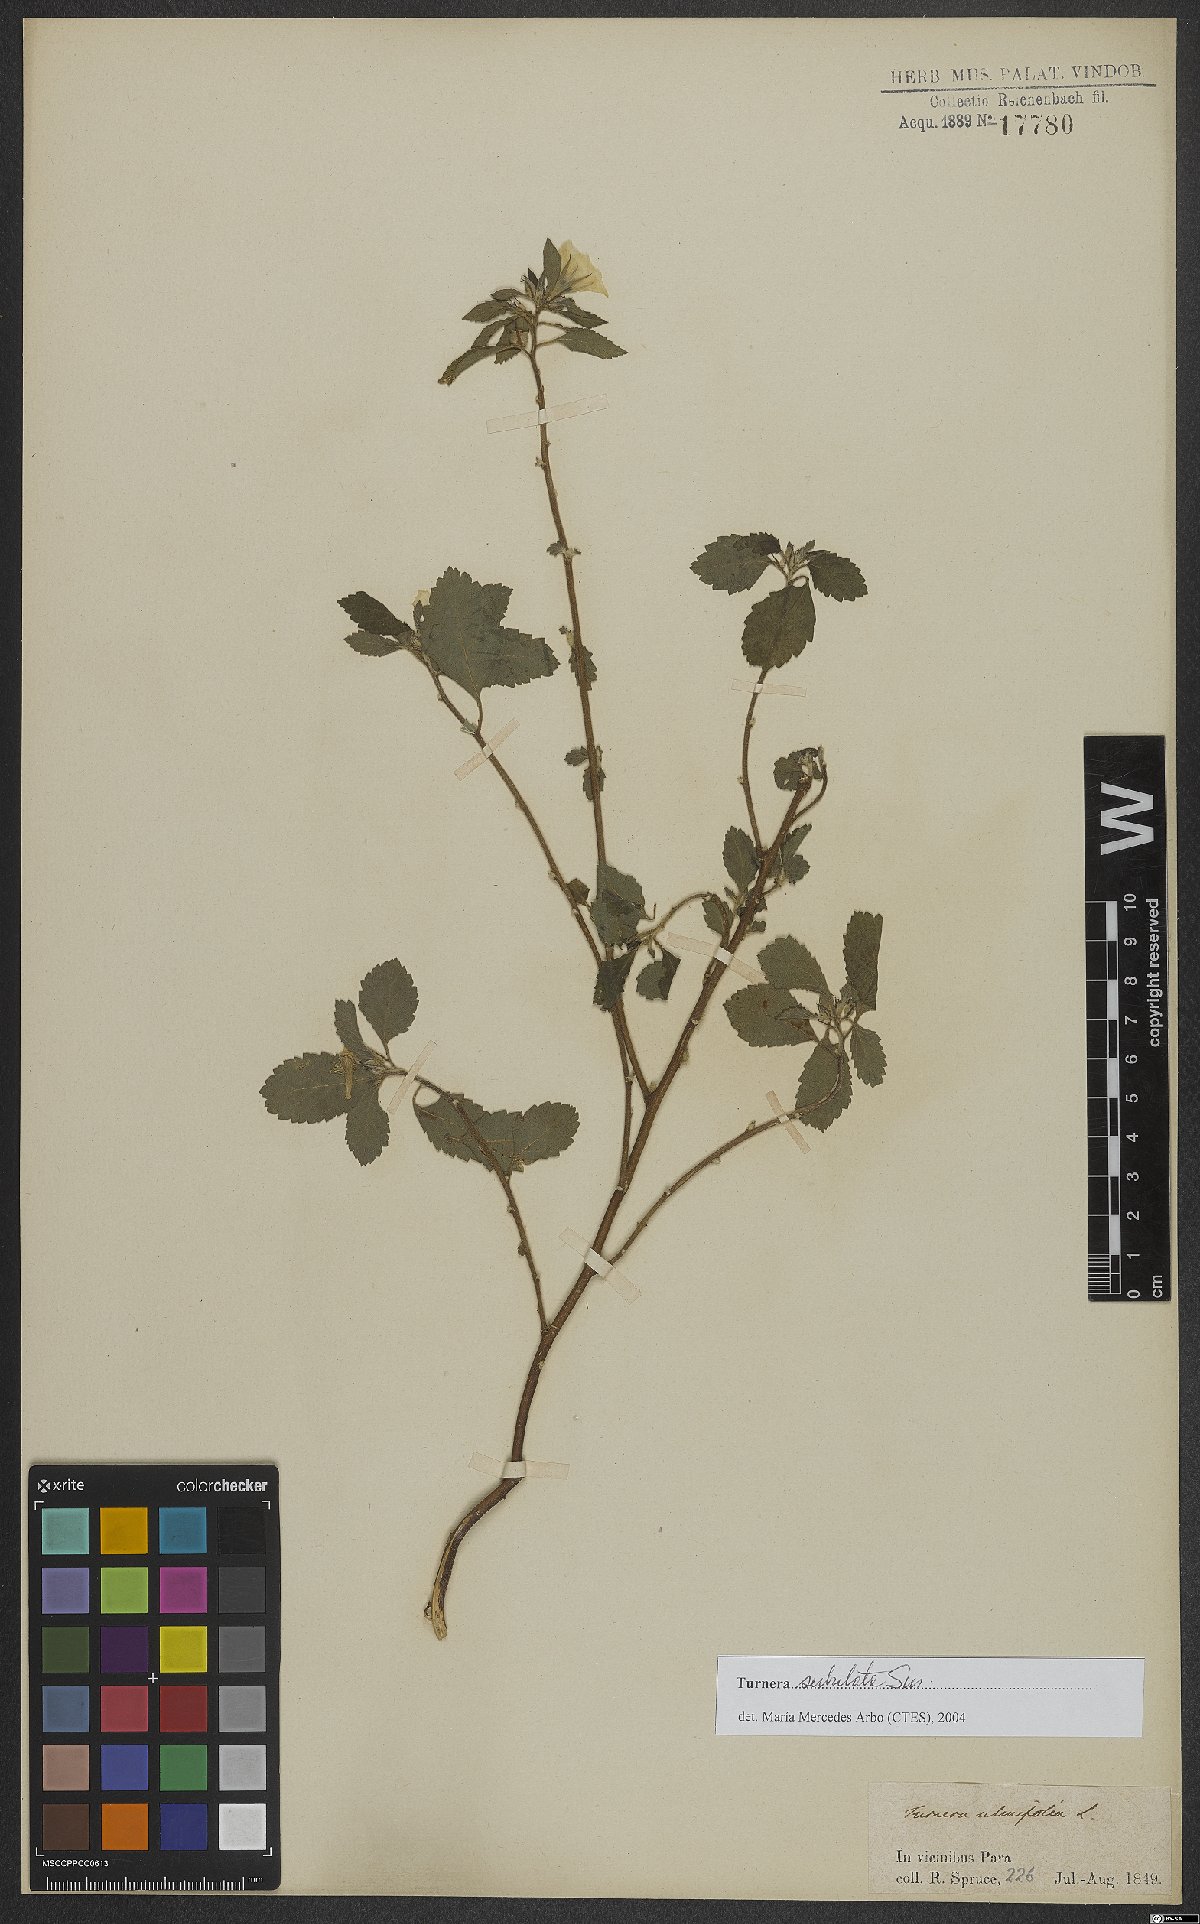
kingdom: Plantae
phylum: Tracheophyta
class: Magnoliopsida
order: Malpighiales
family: Turneraceae
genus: Turnera
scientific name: Turnera subulata
